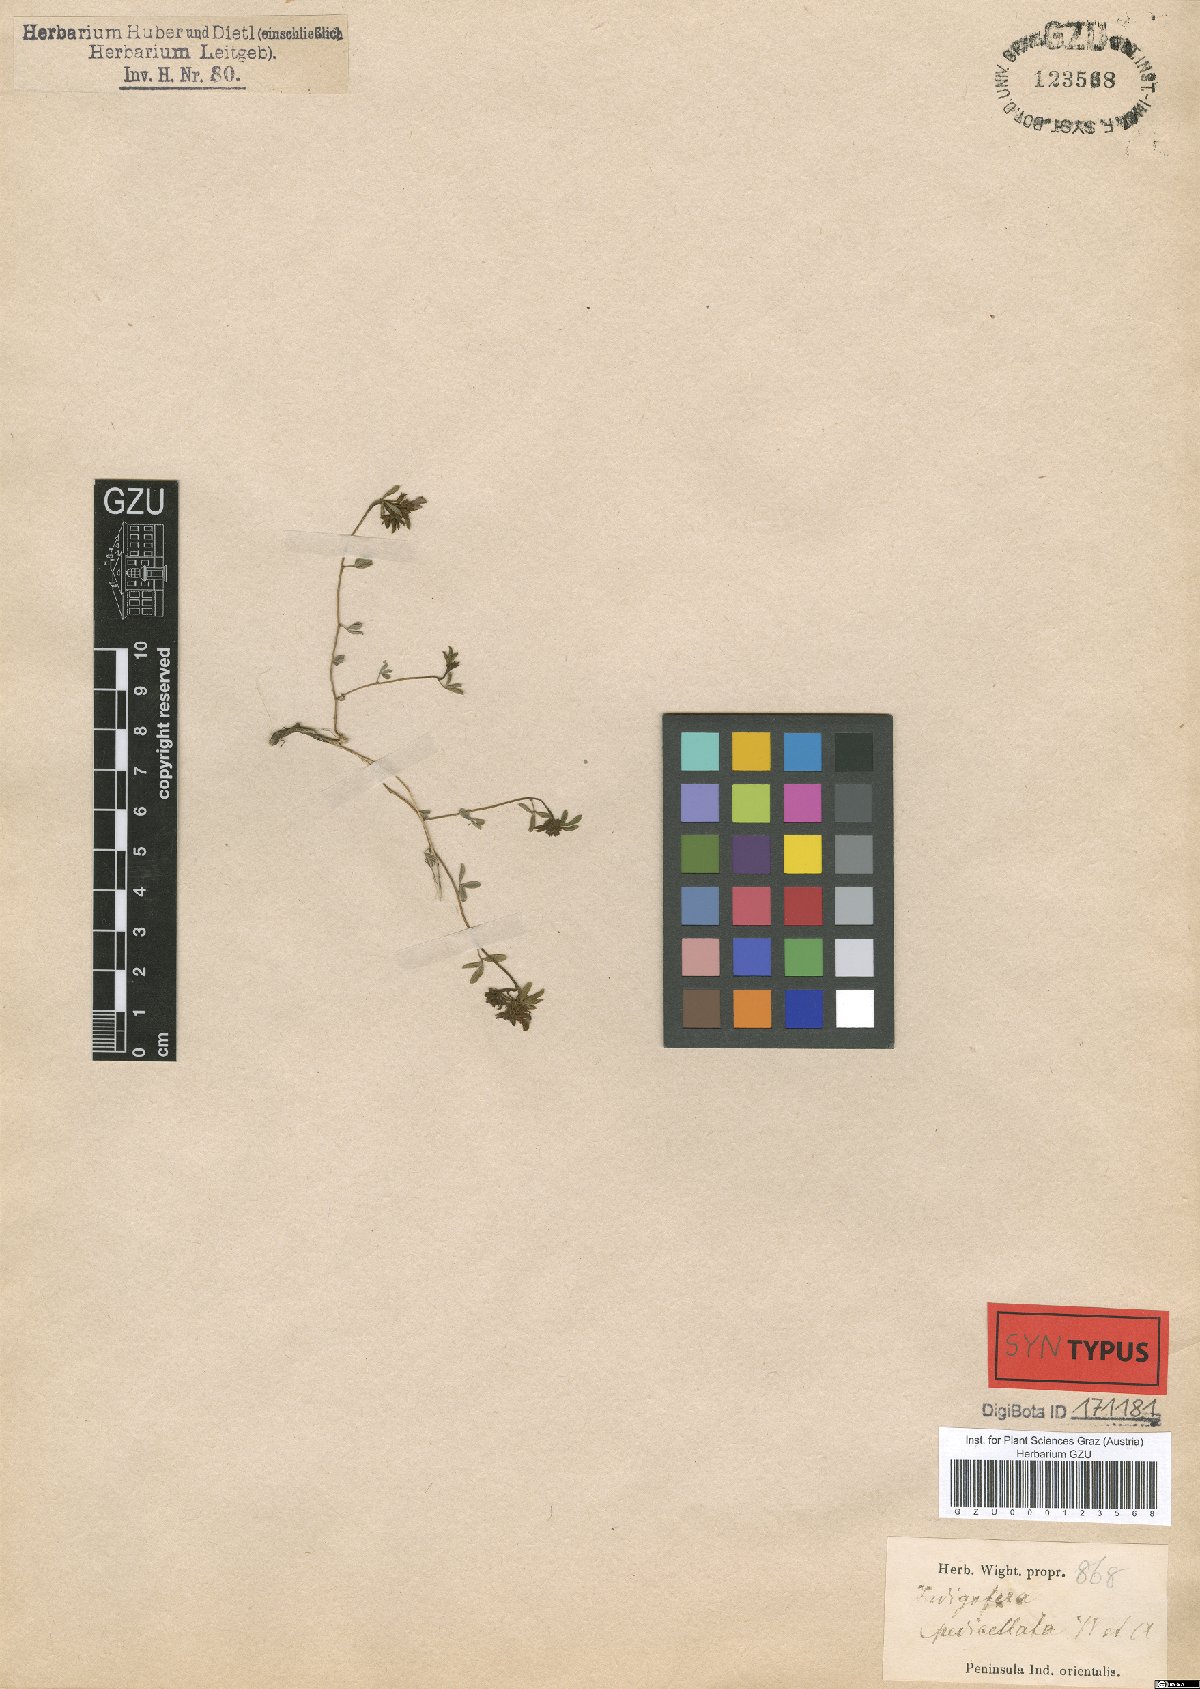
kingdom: Plantae
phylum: Tracheophyta
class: Magnoliopsida
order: Fabales
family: Fabaceae
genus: Indigofera
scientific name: Indigofera pedicellata
